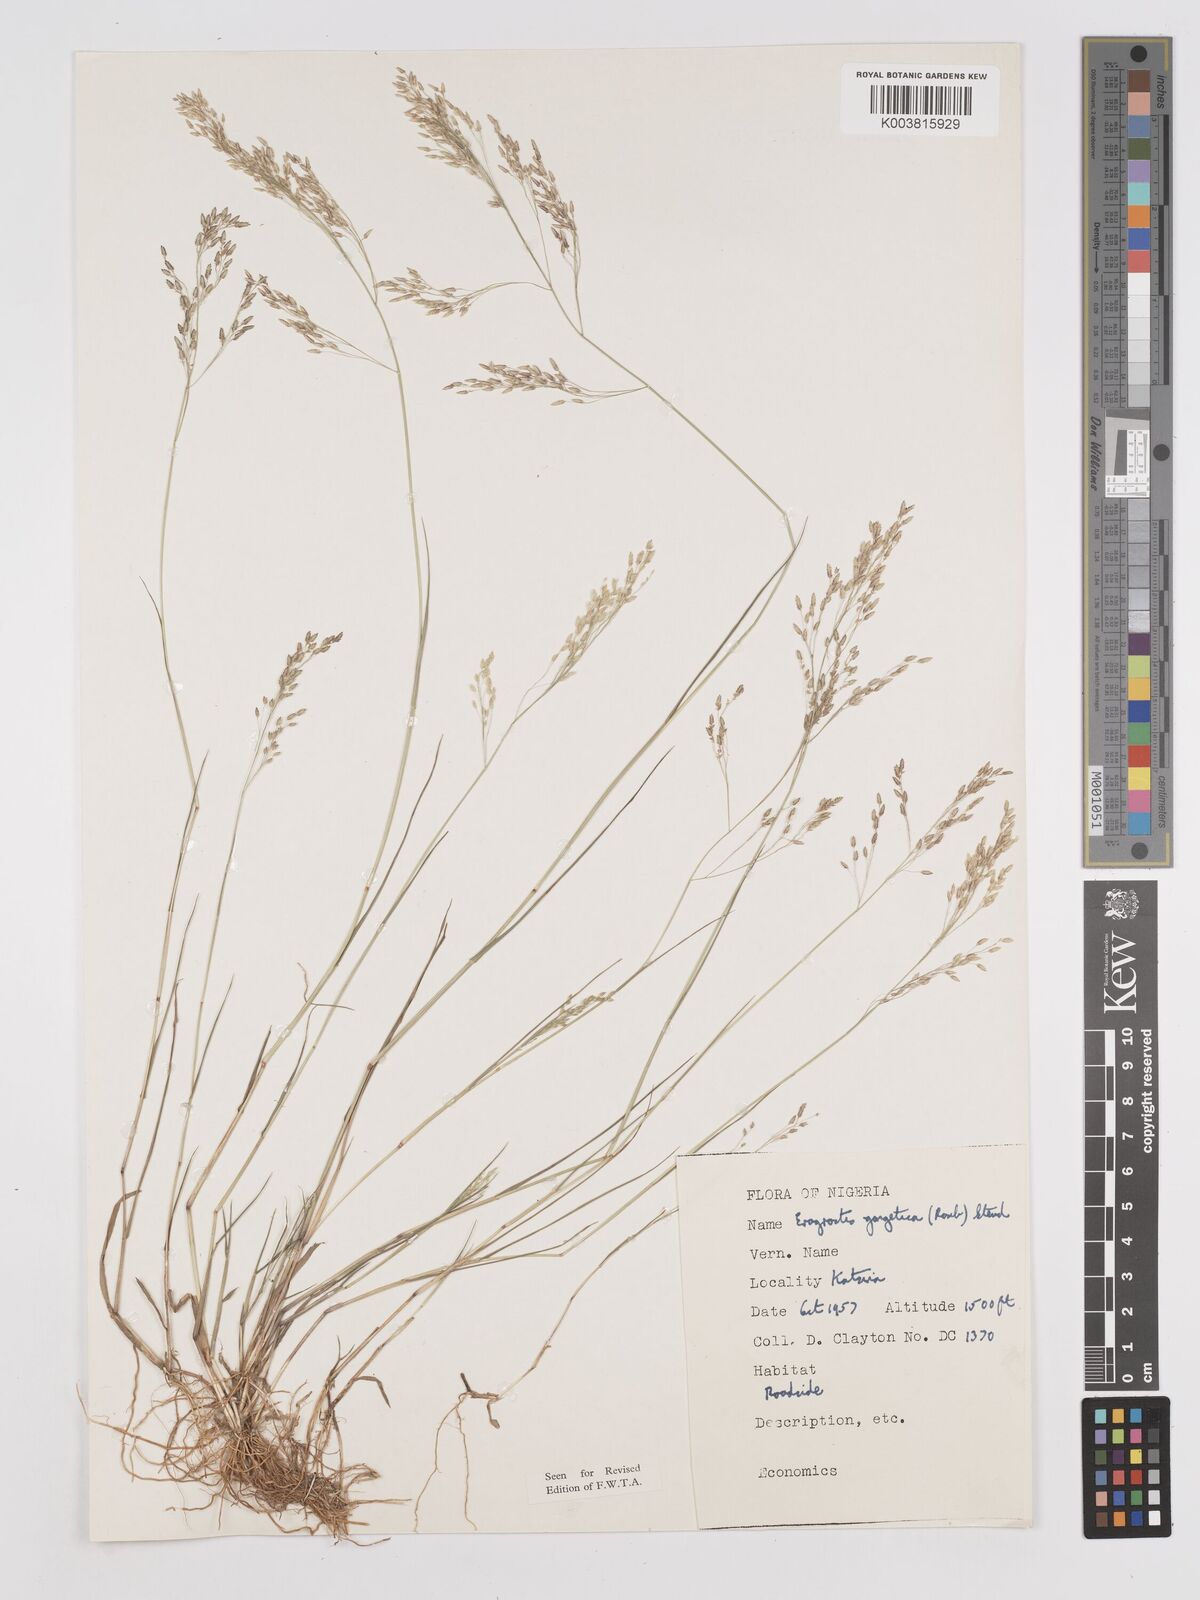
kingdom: Plantae
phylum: Tracheophyta
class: Liliopsida
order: Poales
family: Poaceae
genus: Eragrostis
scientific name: Eragrostis gangetica
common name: Slimflower lovegrass
